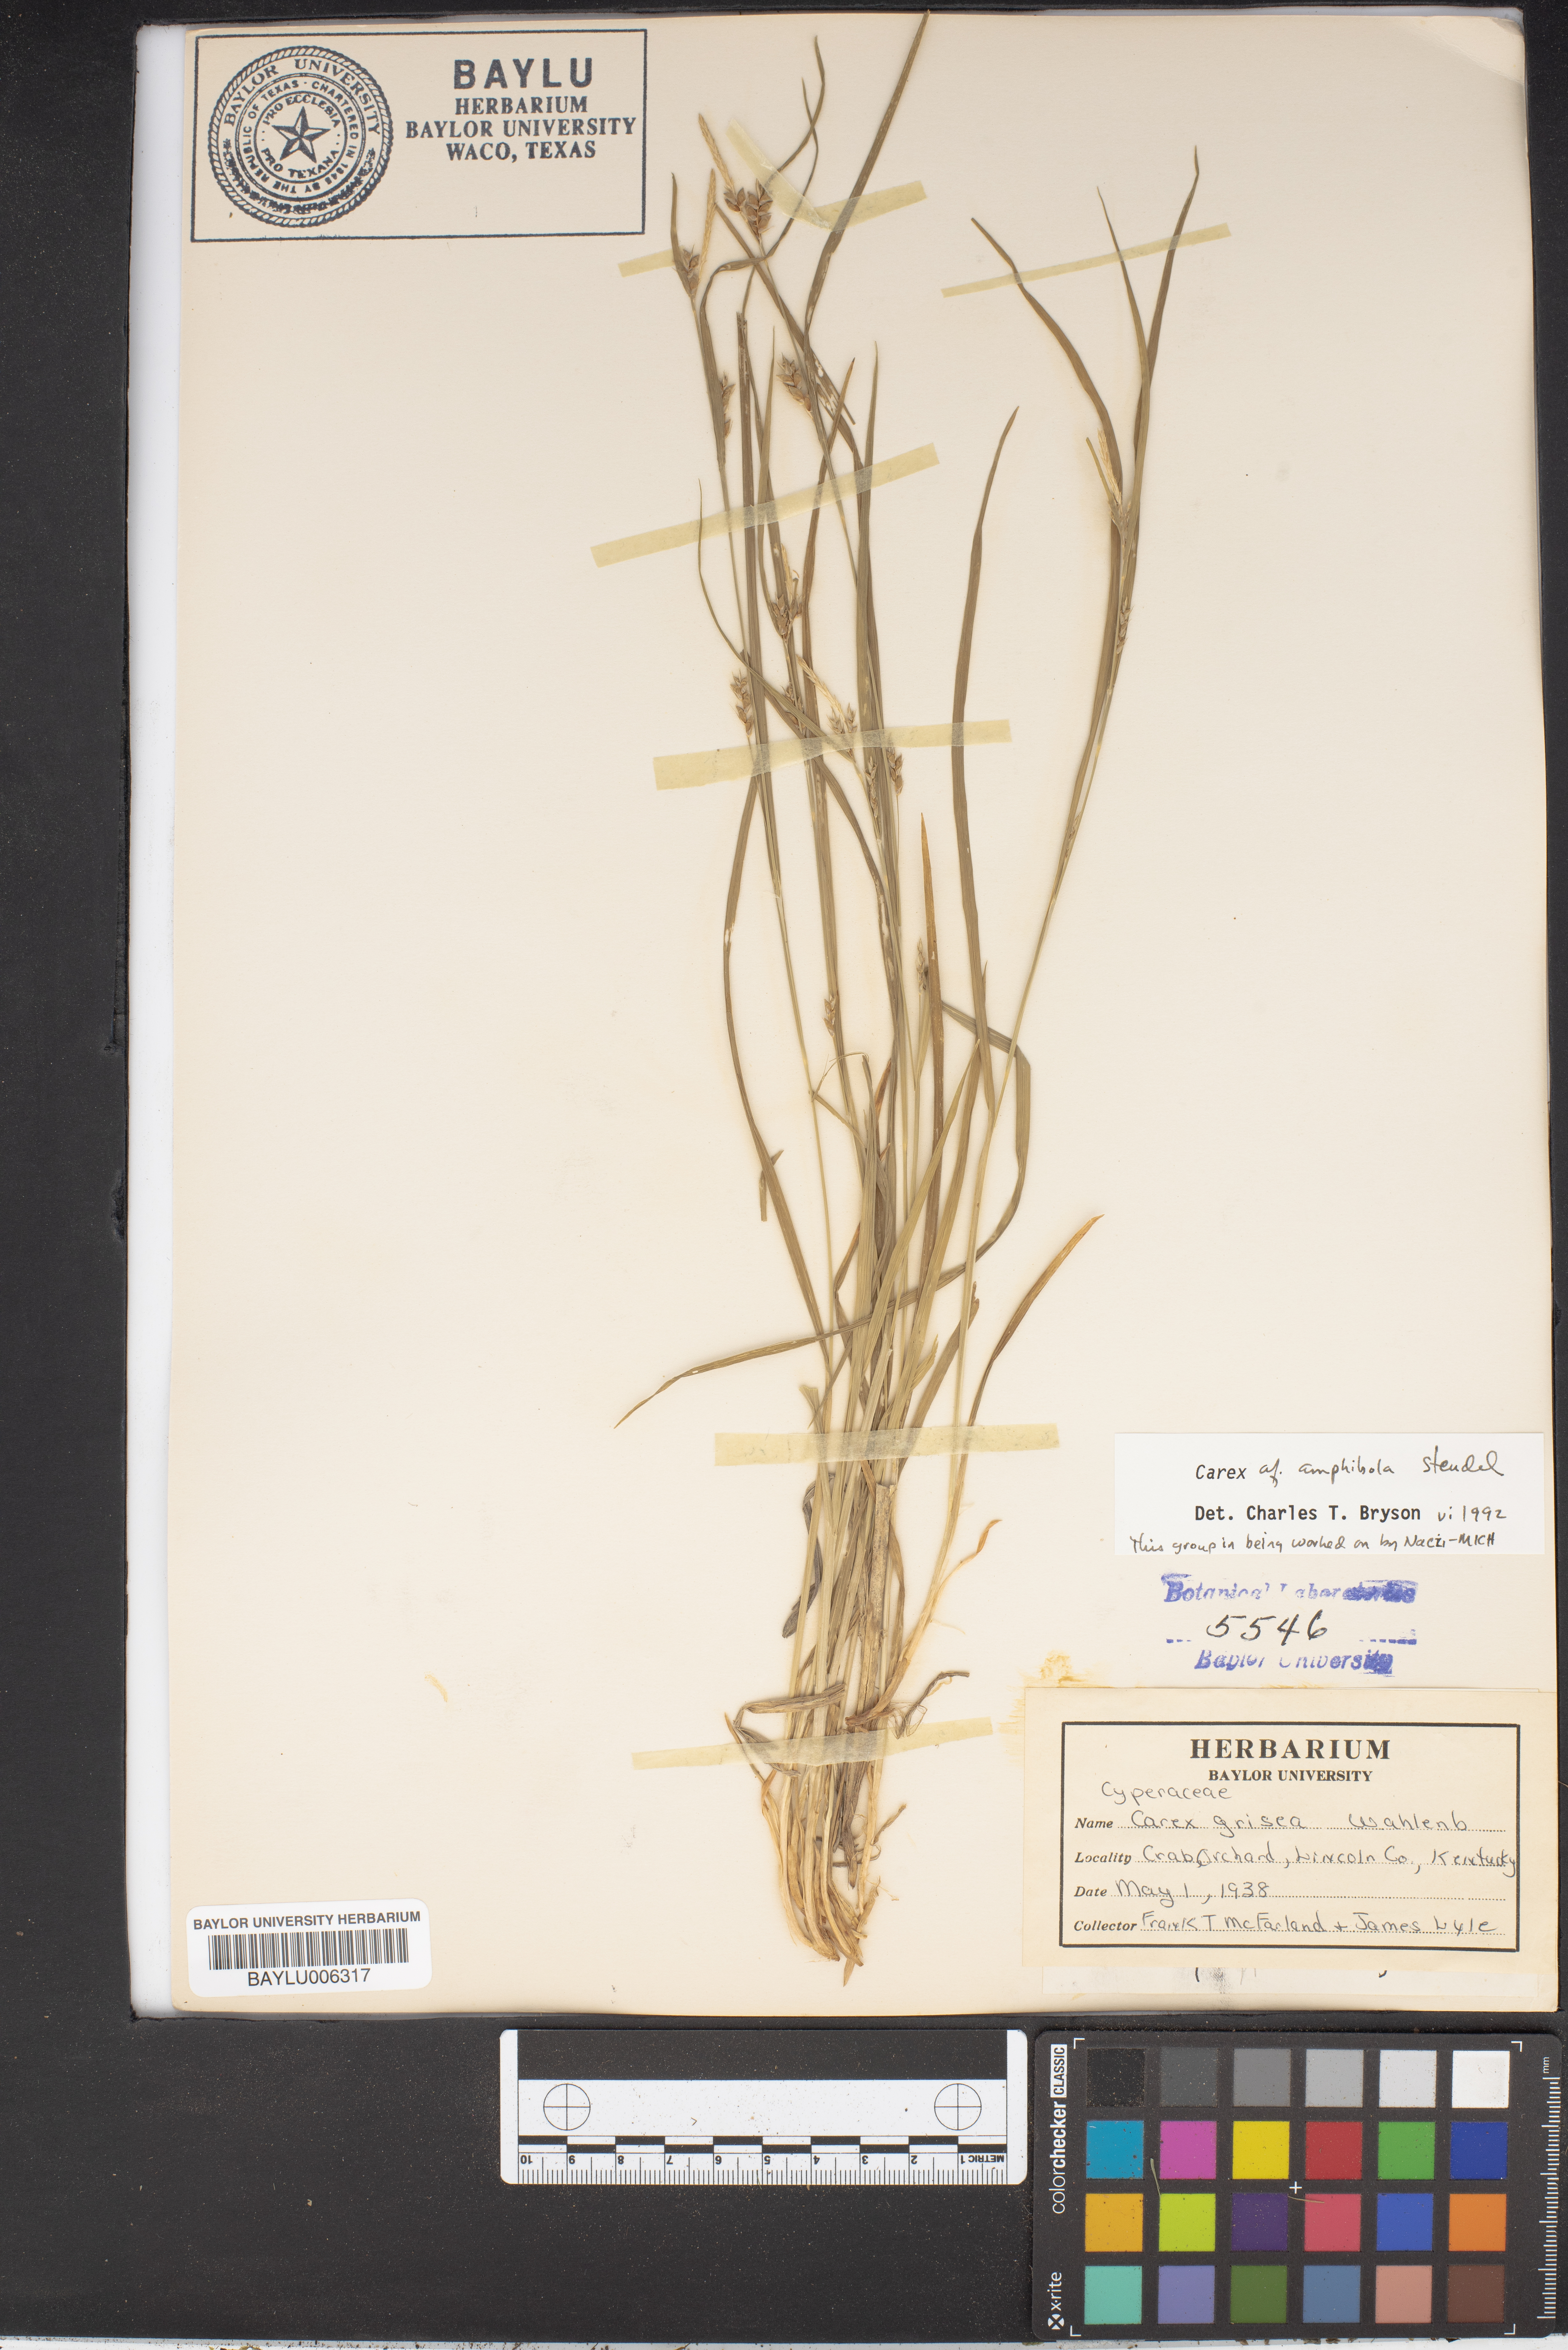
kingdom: Plantae
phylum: Tracheophyta
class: Liliopsida
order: Poales
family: Cyperaceae
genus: Carex
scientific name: Carex grisea
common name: Eastern narrow-leaved sedge
